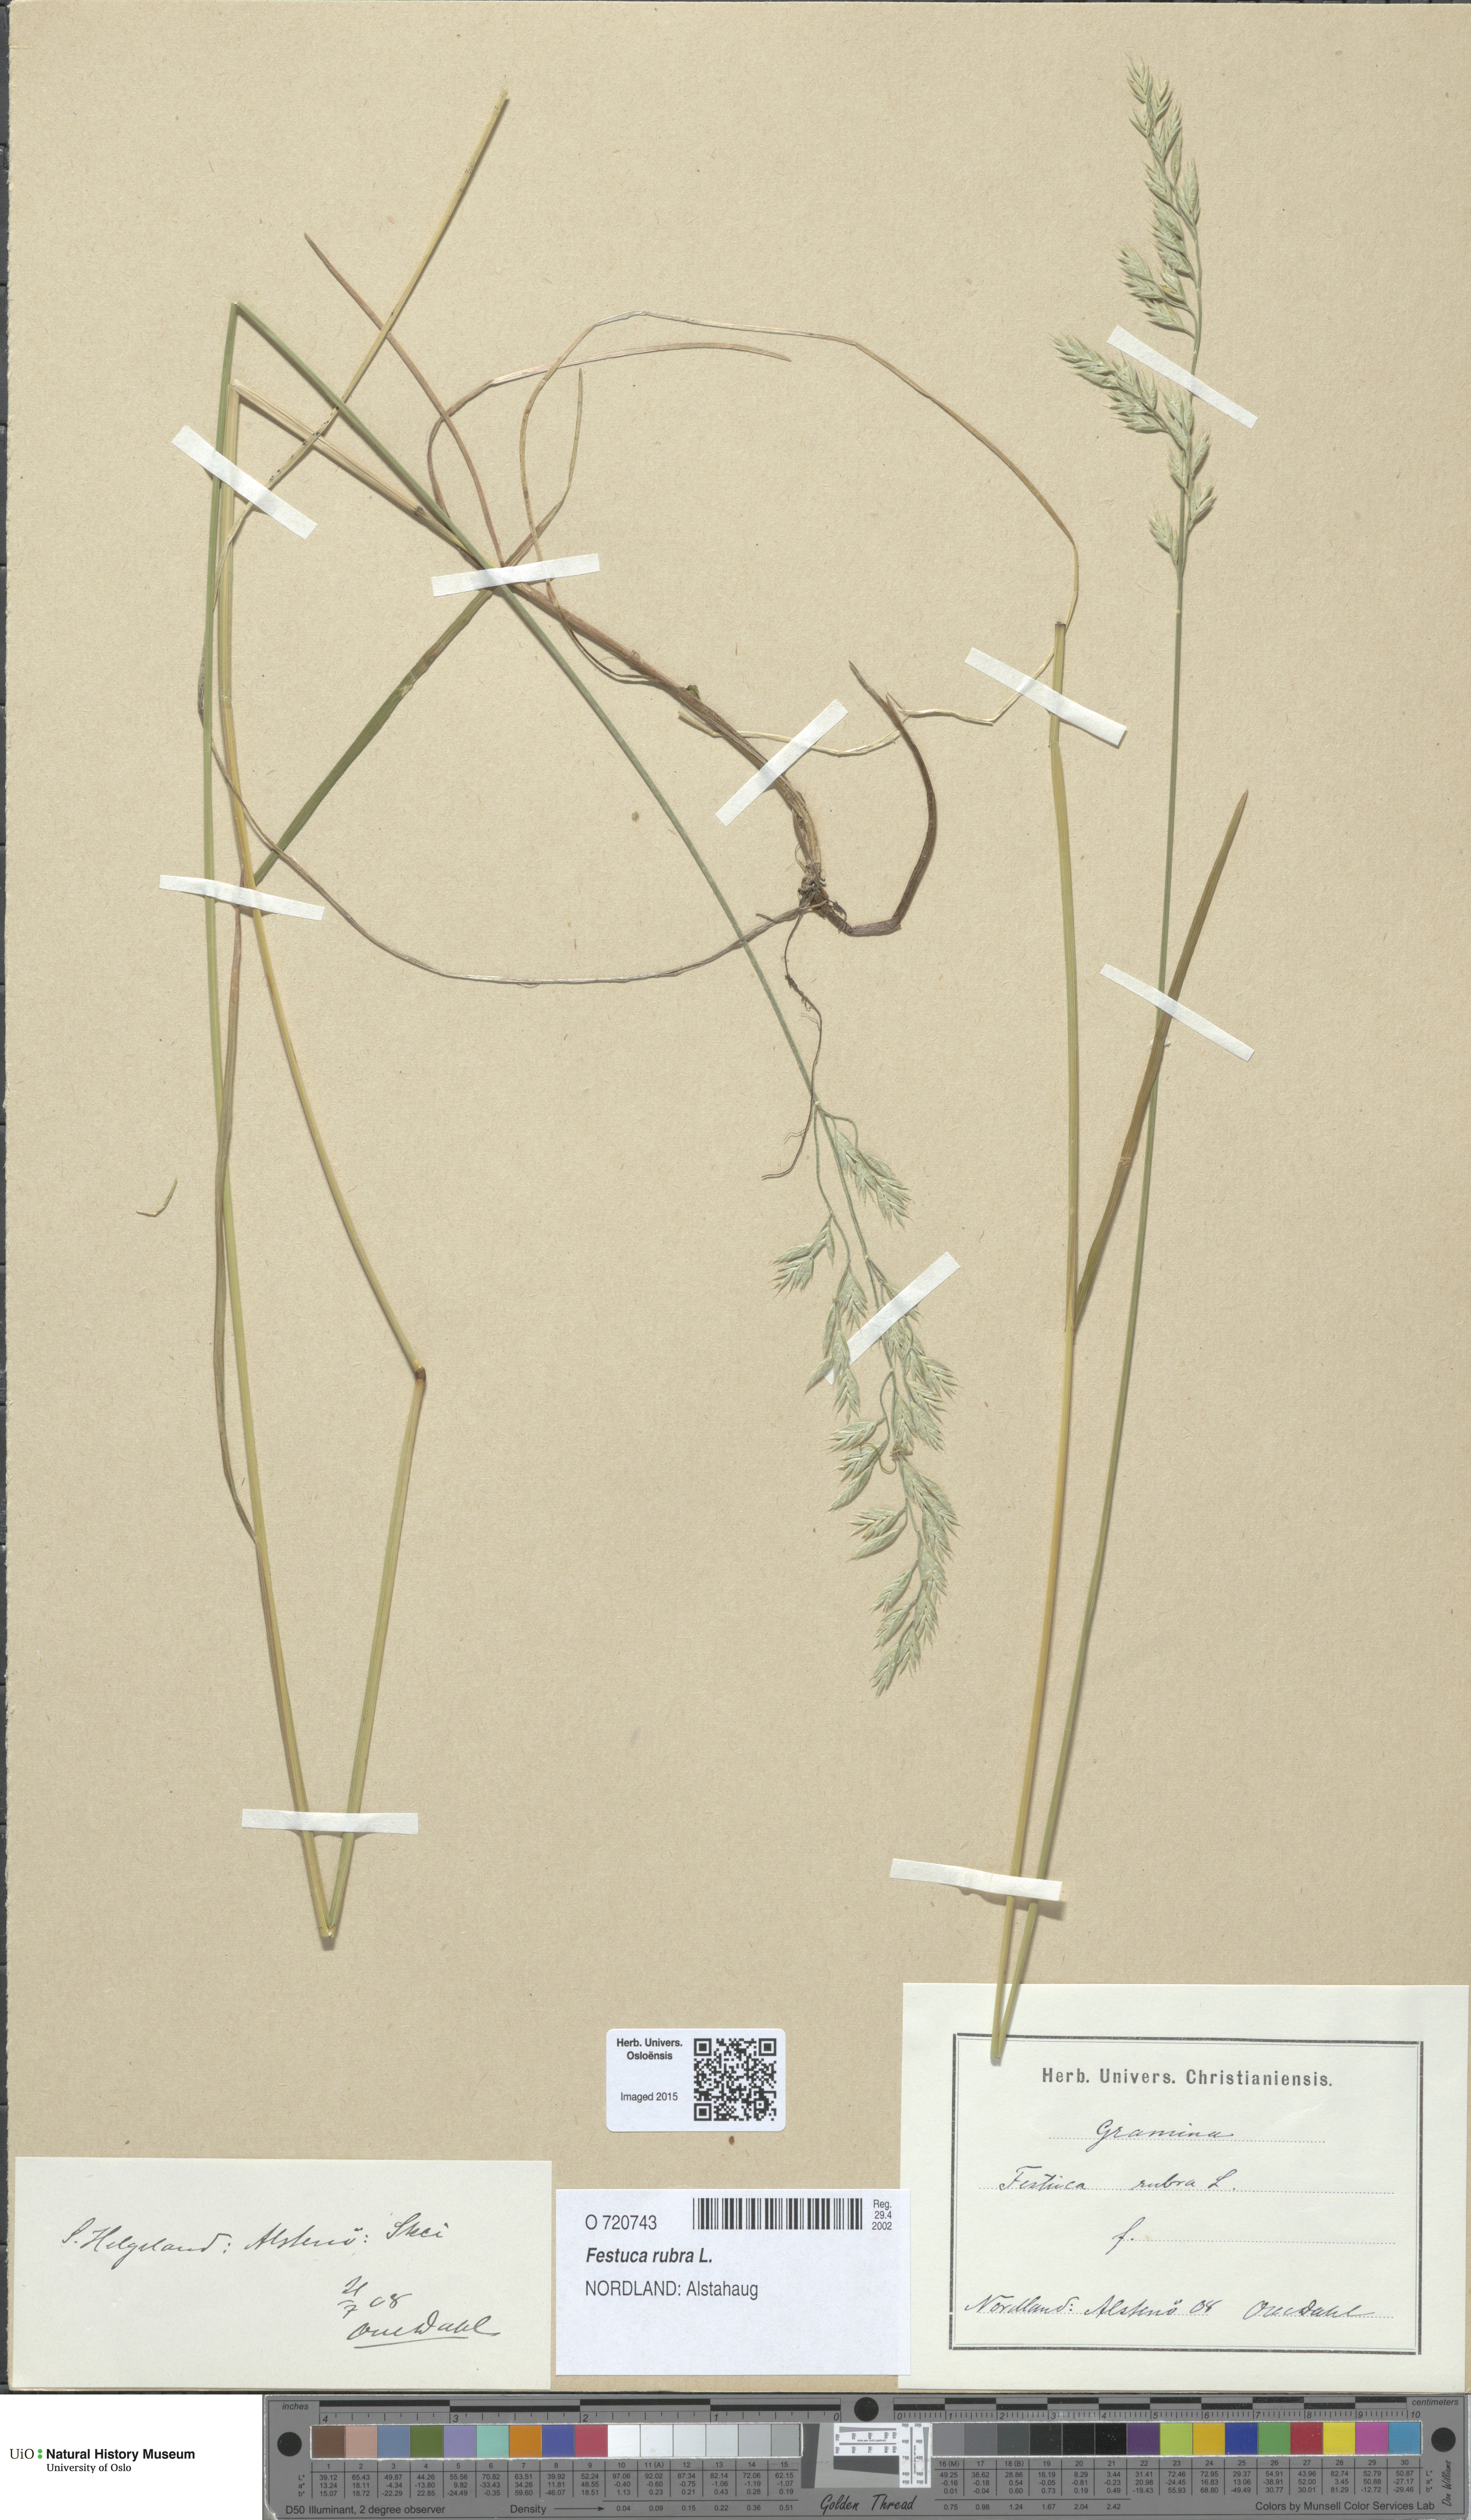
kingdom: Plantae
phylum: Tracheophyta
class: Liliopsida
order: Poales
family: Poaceae
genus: Festuca
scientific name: Festuca rubra
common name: Red fescue
